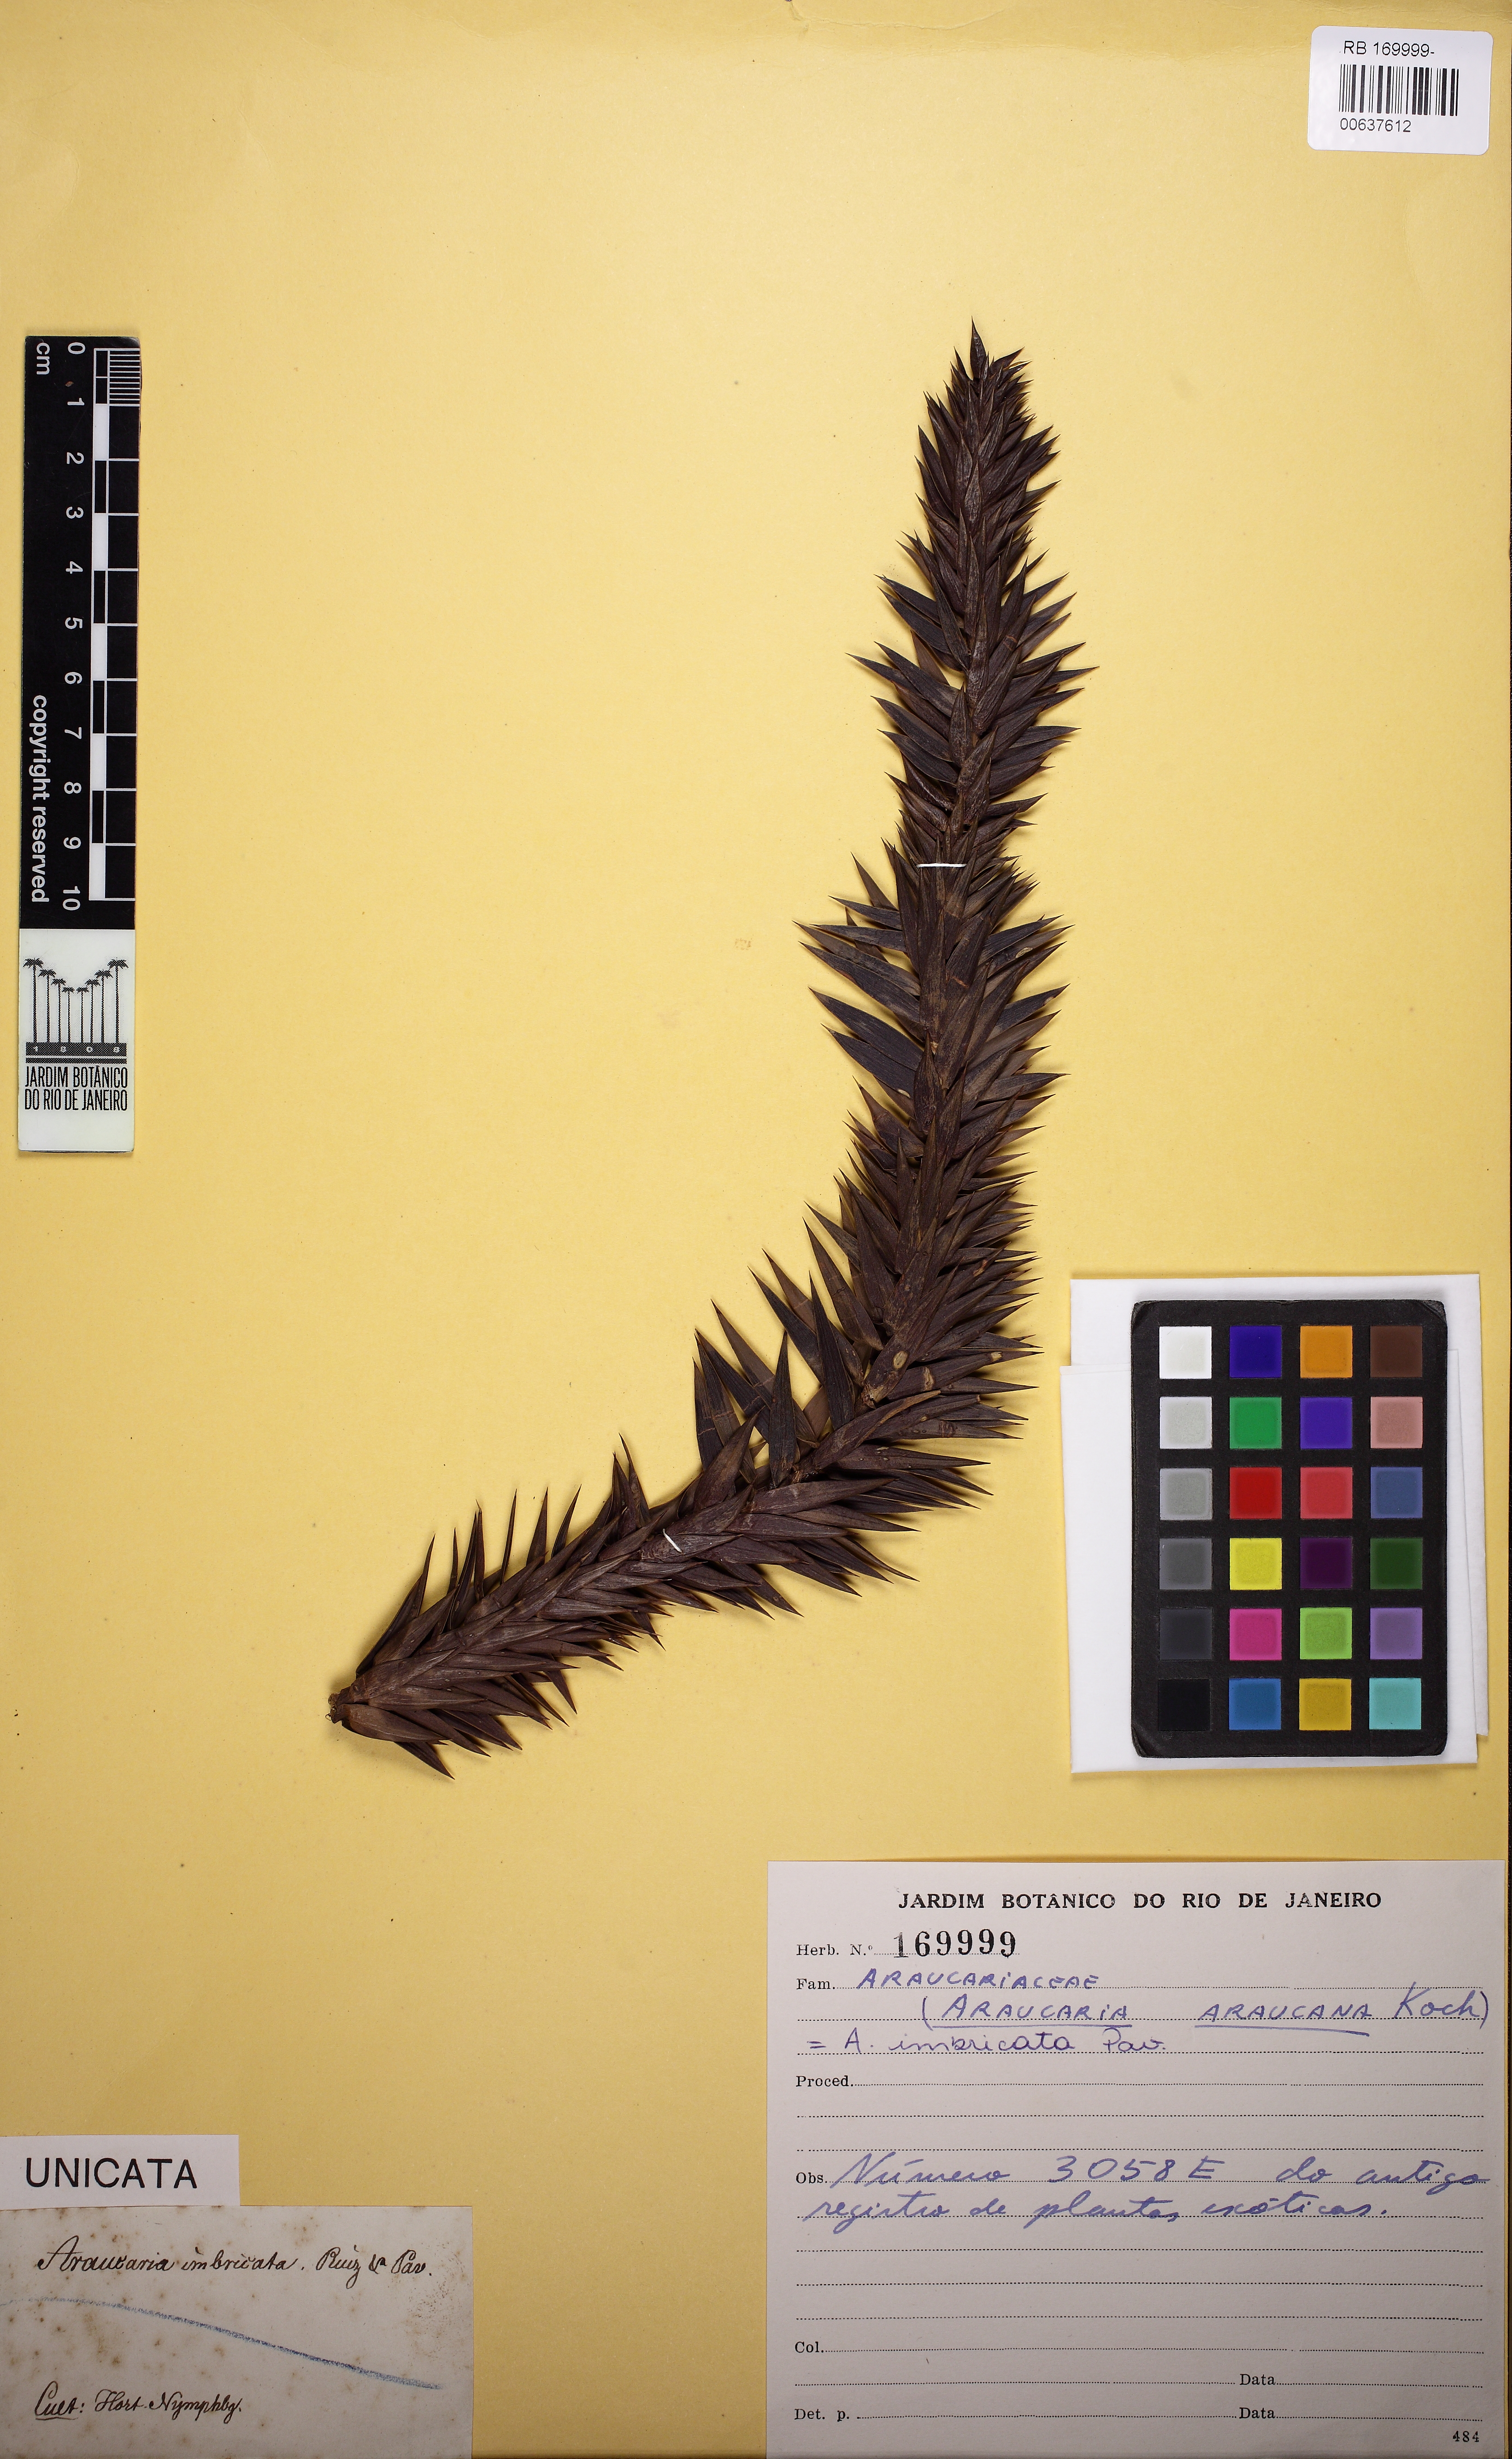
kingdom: Plantae
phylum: Tracheophyta
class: Pinopsida
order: Pinales
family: Araucariaceae
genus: Araucaria
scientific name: Araucaria araucana
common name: Monkey-puzzle
